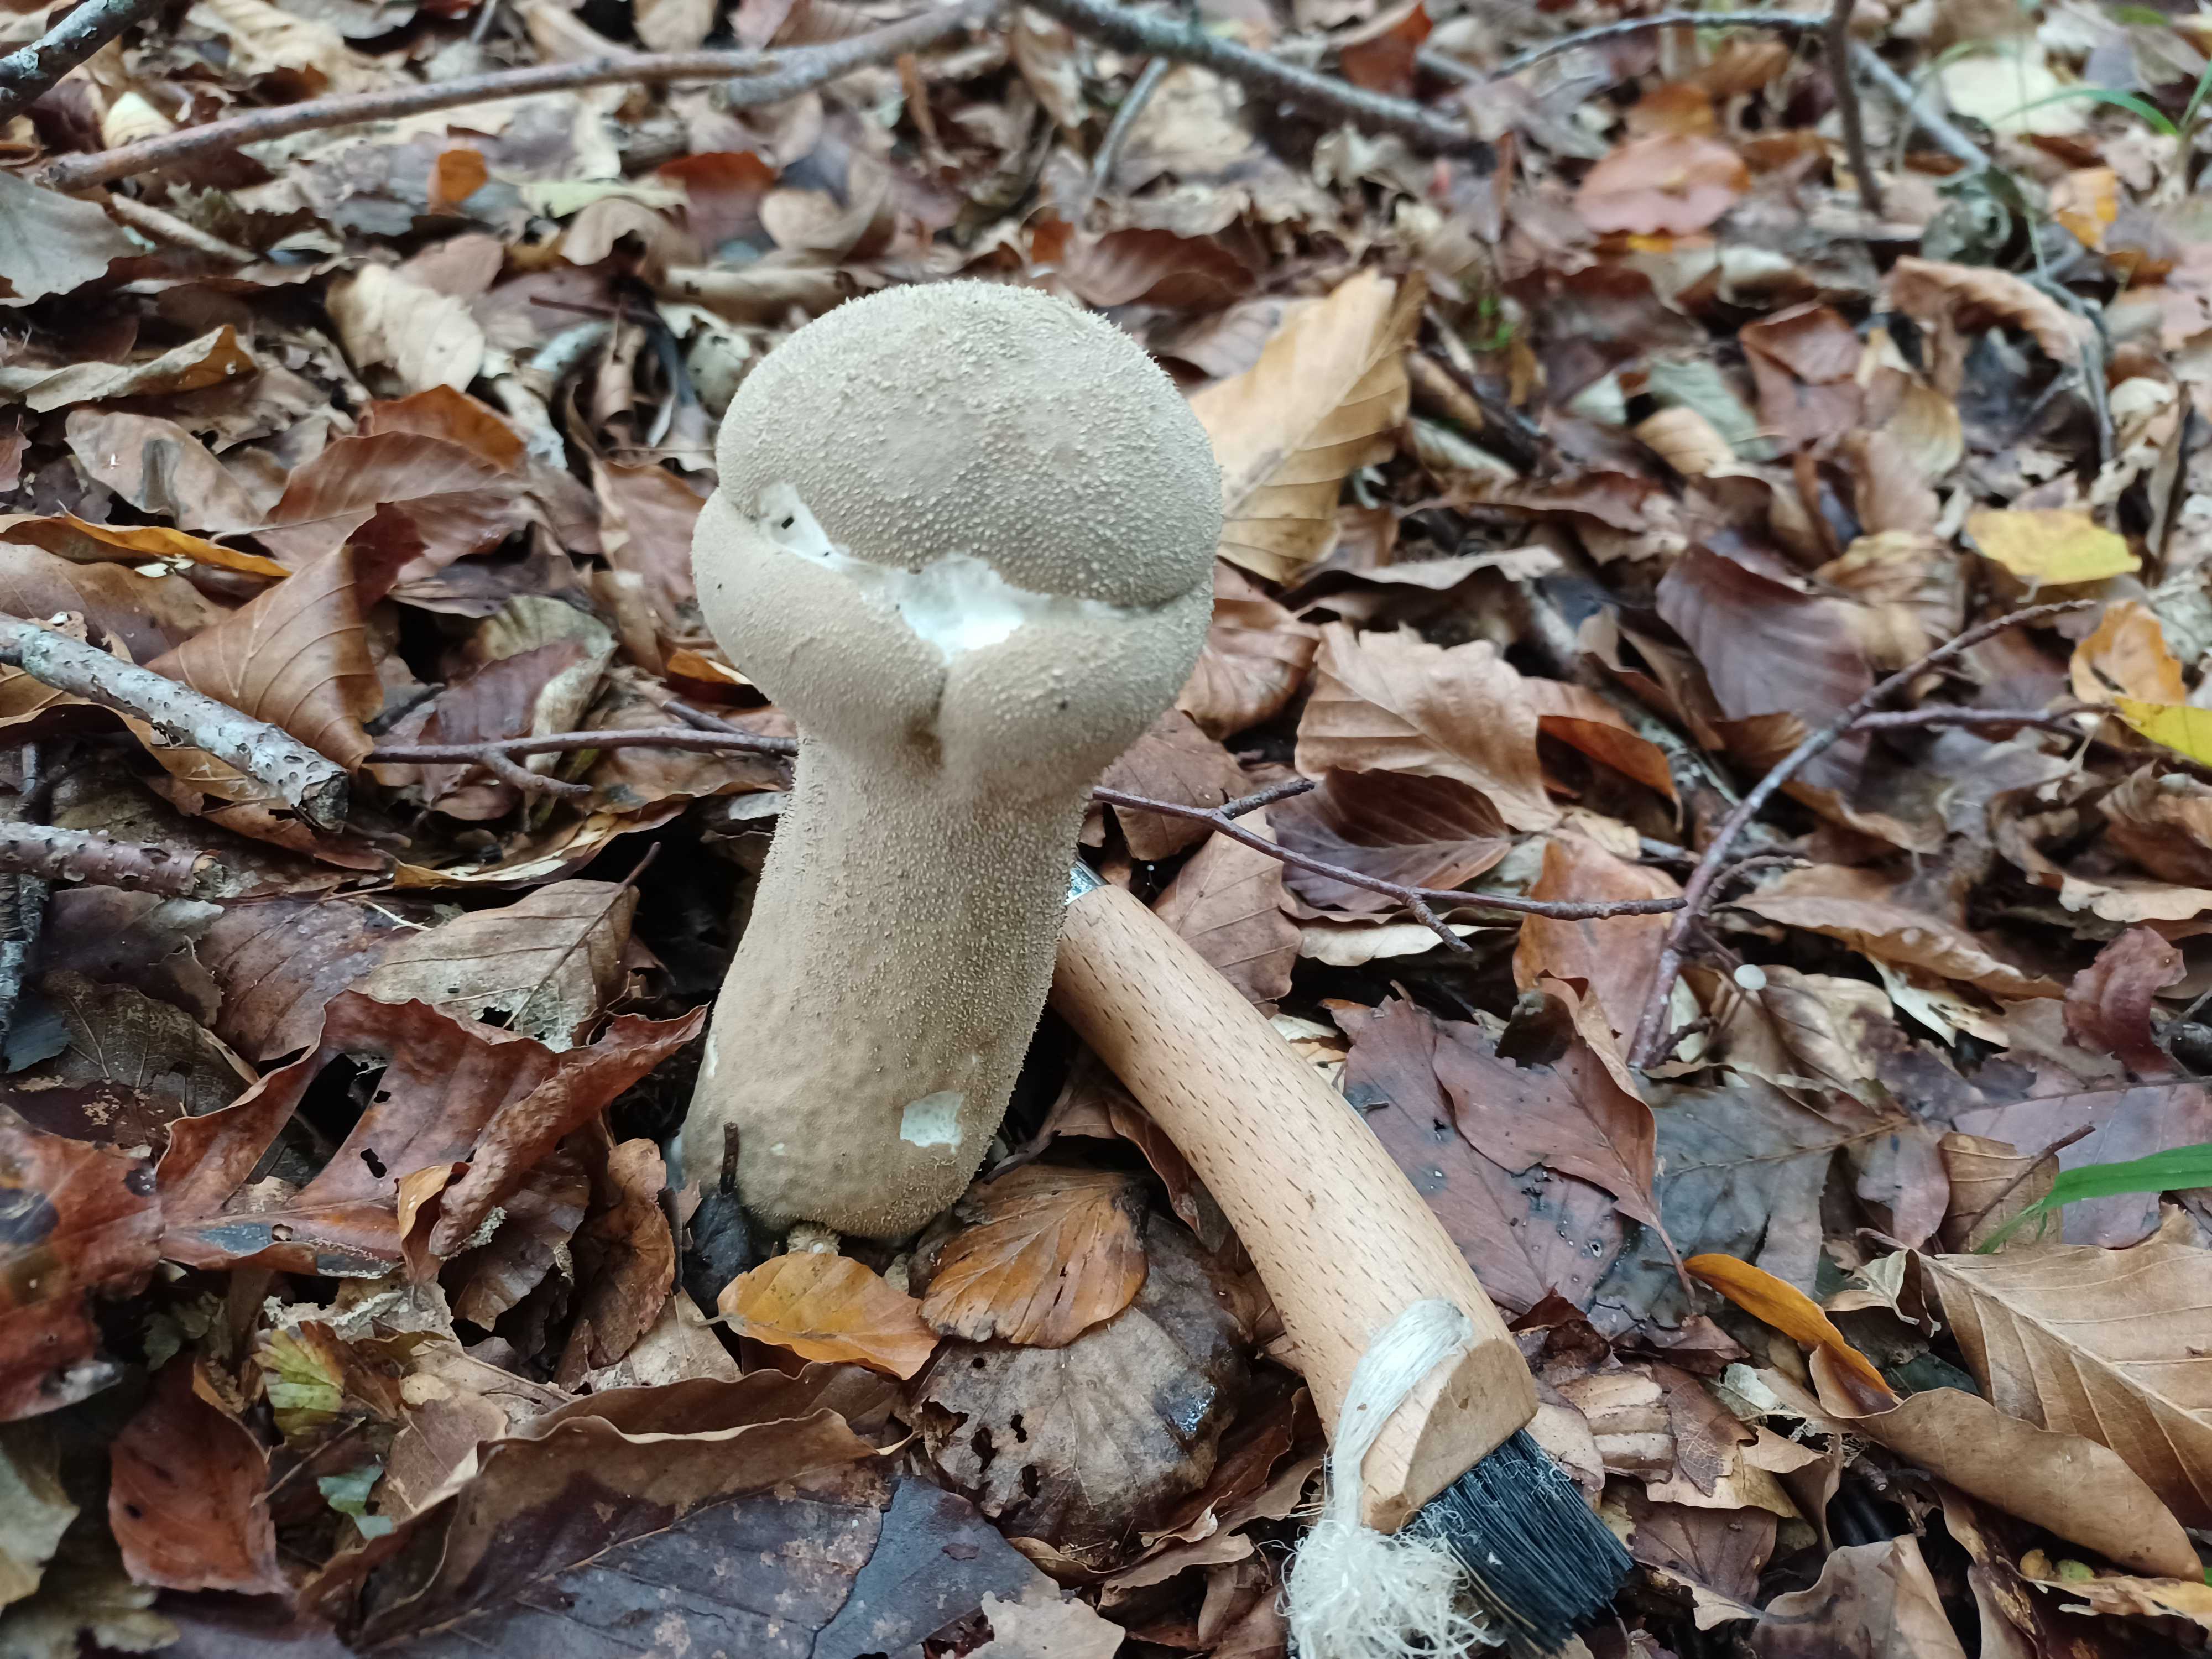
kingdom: Fungi
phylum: Basidiomycota
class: Agaricomycetes
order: Agaricales
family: Lycoperdaceae
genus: Lycoperdon
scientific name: Lycoperdon excipuliforme
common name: højstokket støvbold
